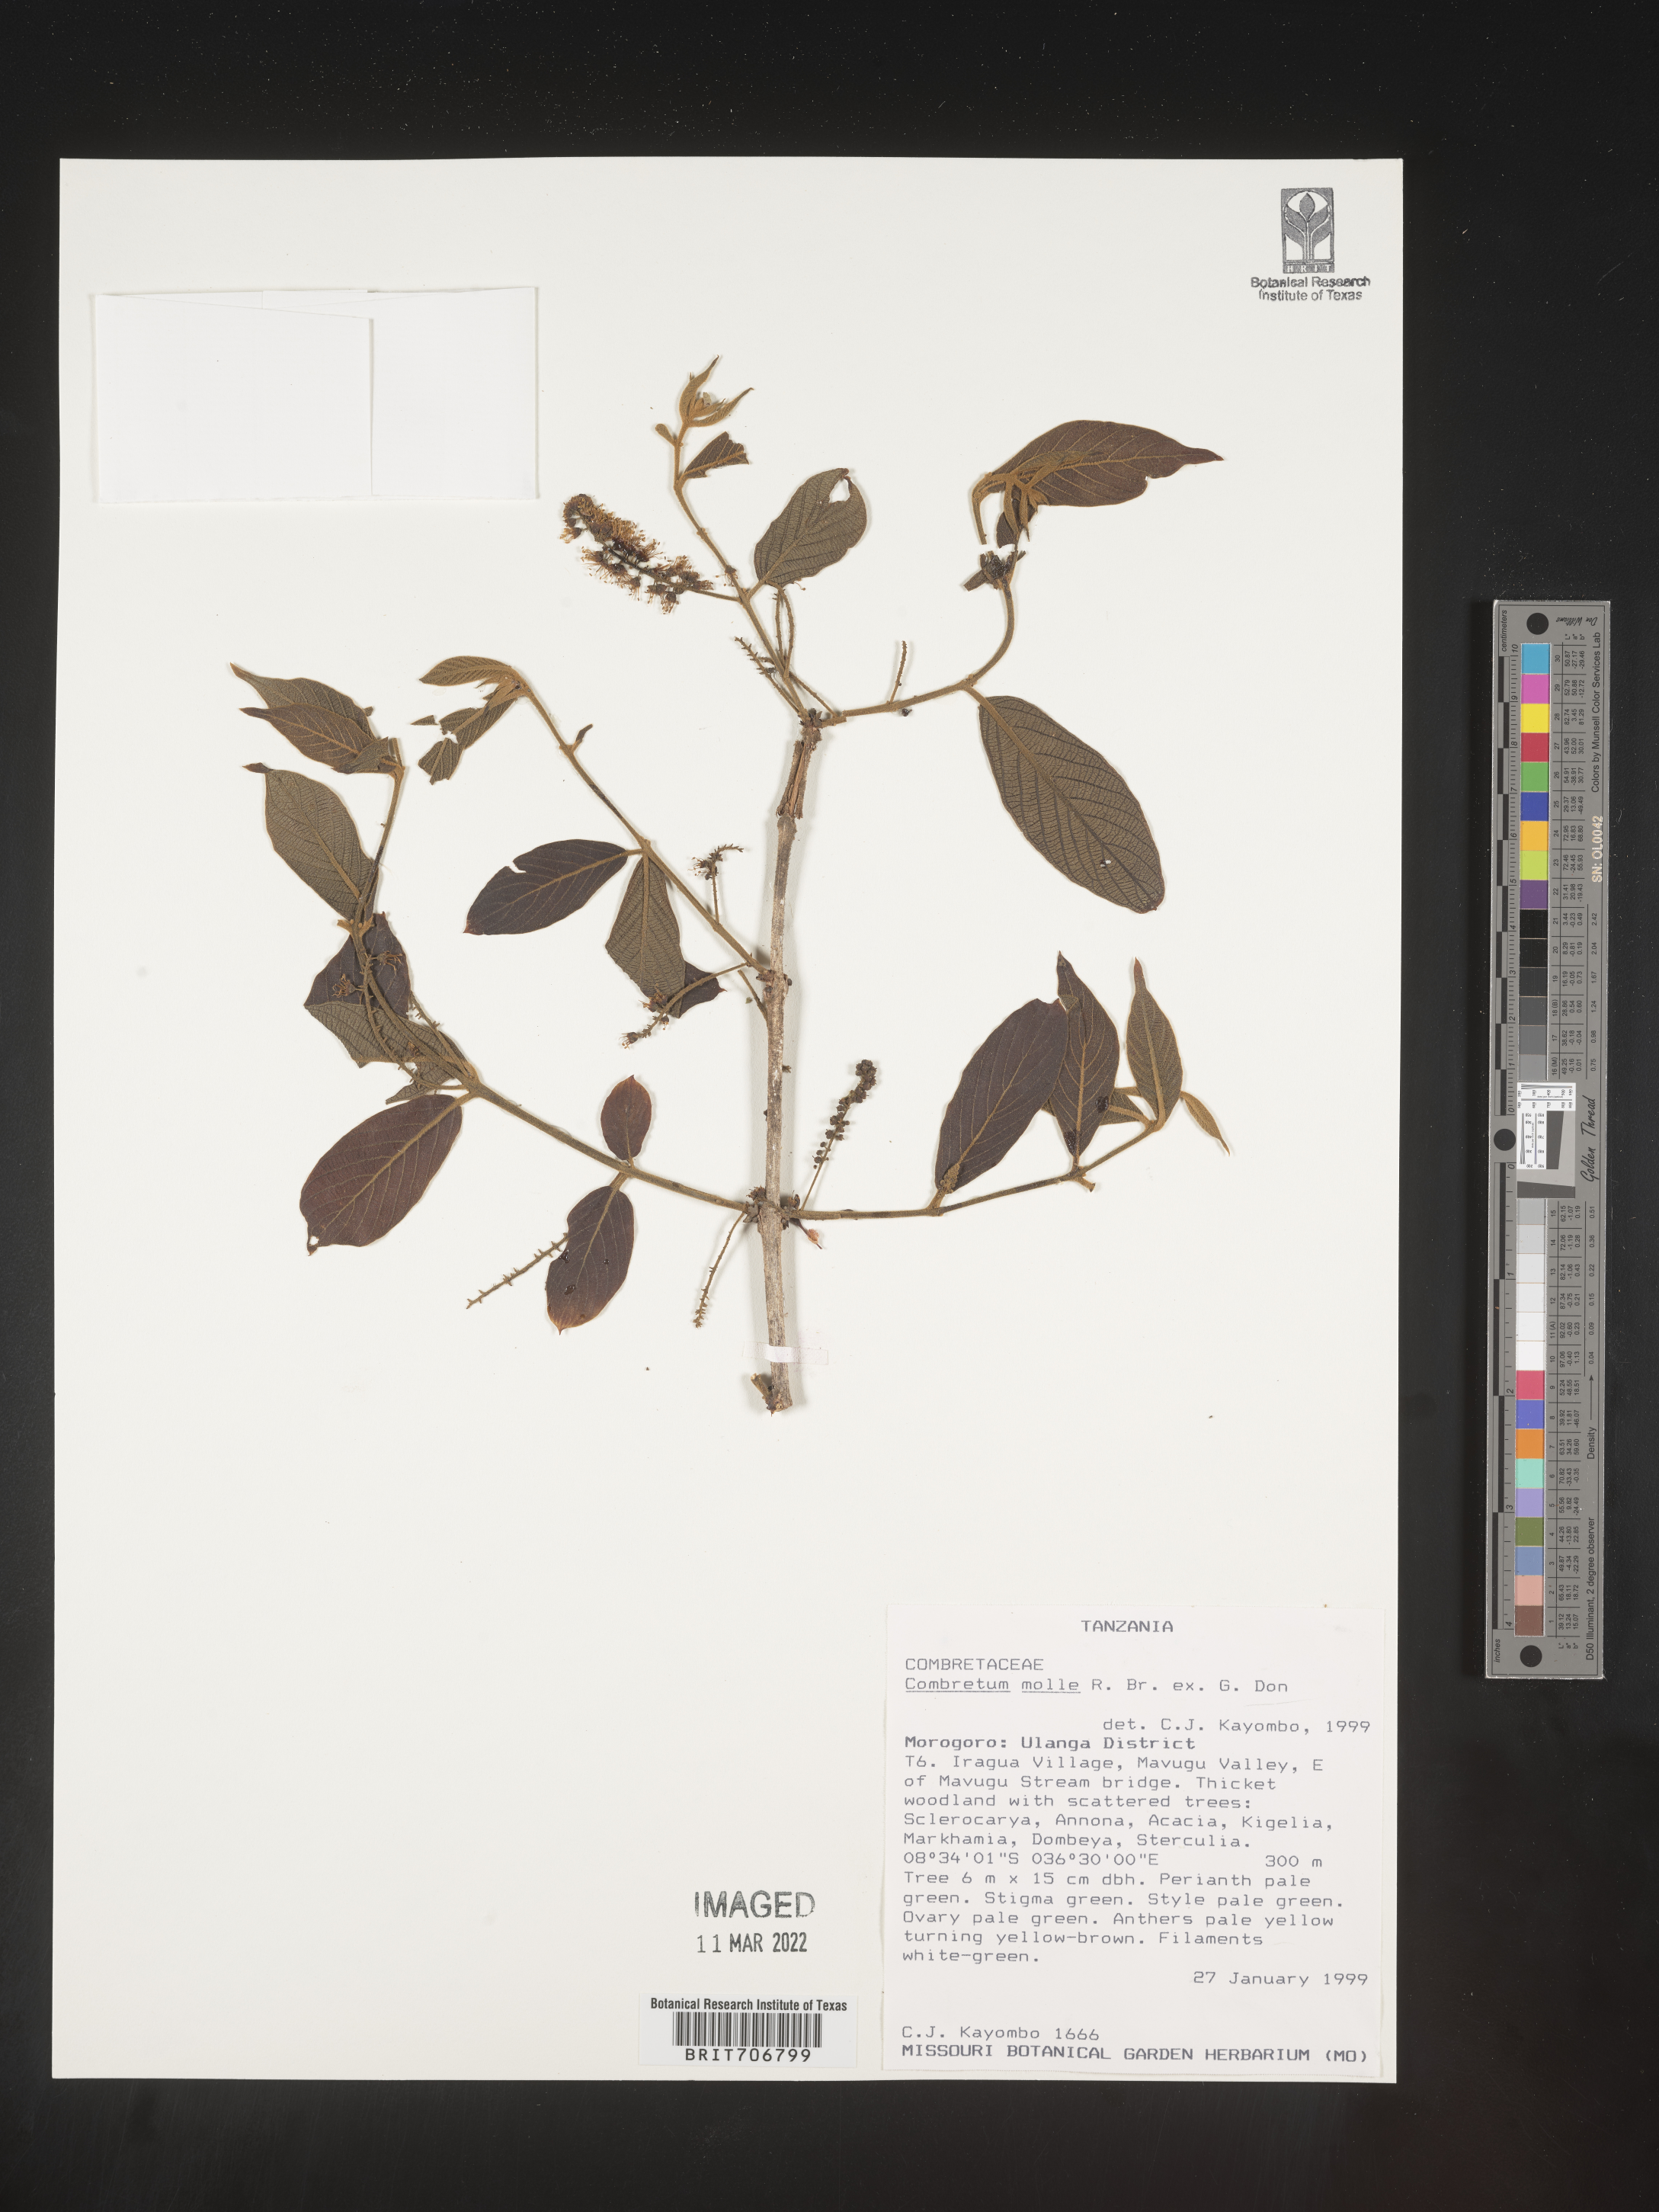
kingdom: Plantae
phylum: Tracheophyta
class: Magnoliopsida
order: Myrtales
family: Combretaceae
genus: Combretum
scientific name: Combretum
